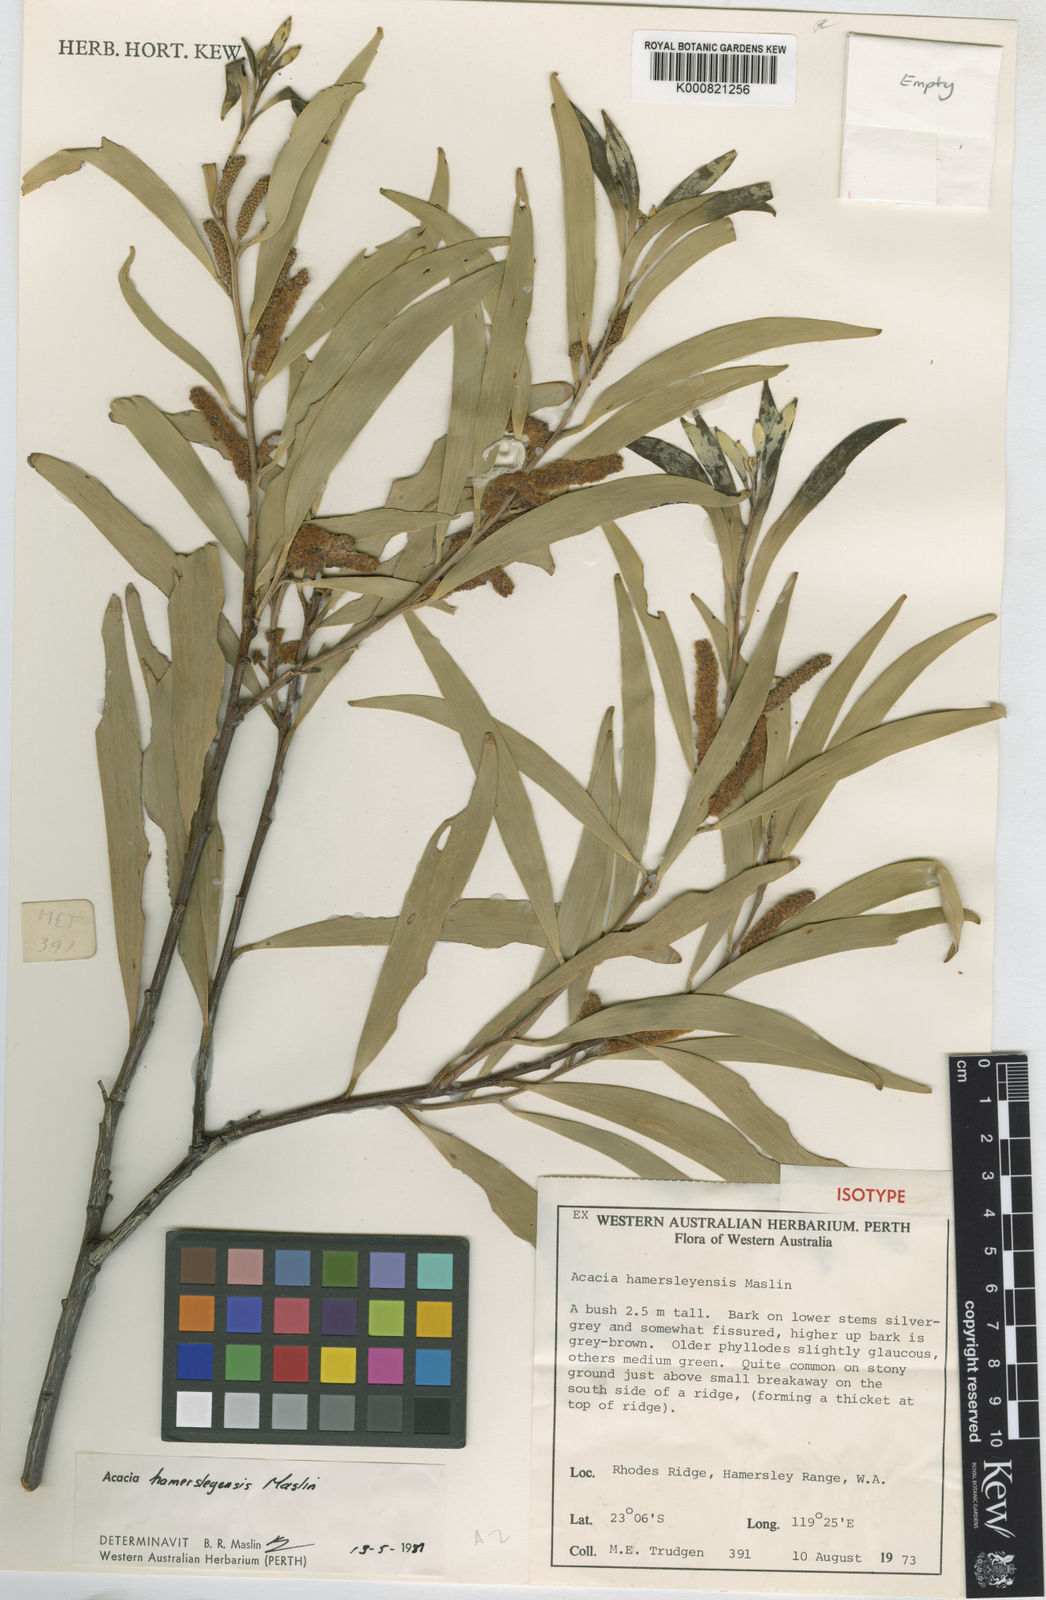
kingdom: Plantae
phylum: Tracheophyta
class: Magnoliopsida
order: Fabales
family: Fabaceae
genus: Acacia
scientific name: Acacia hamersleyensis
